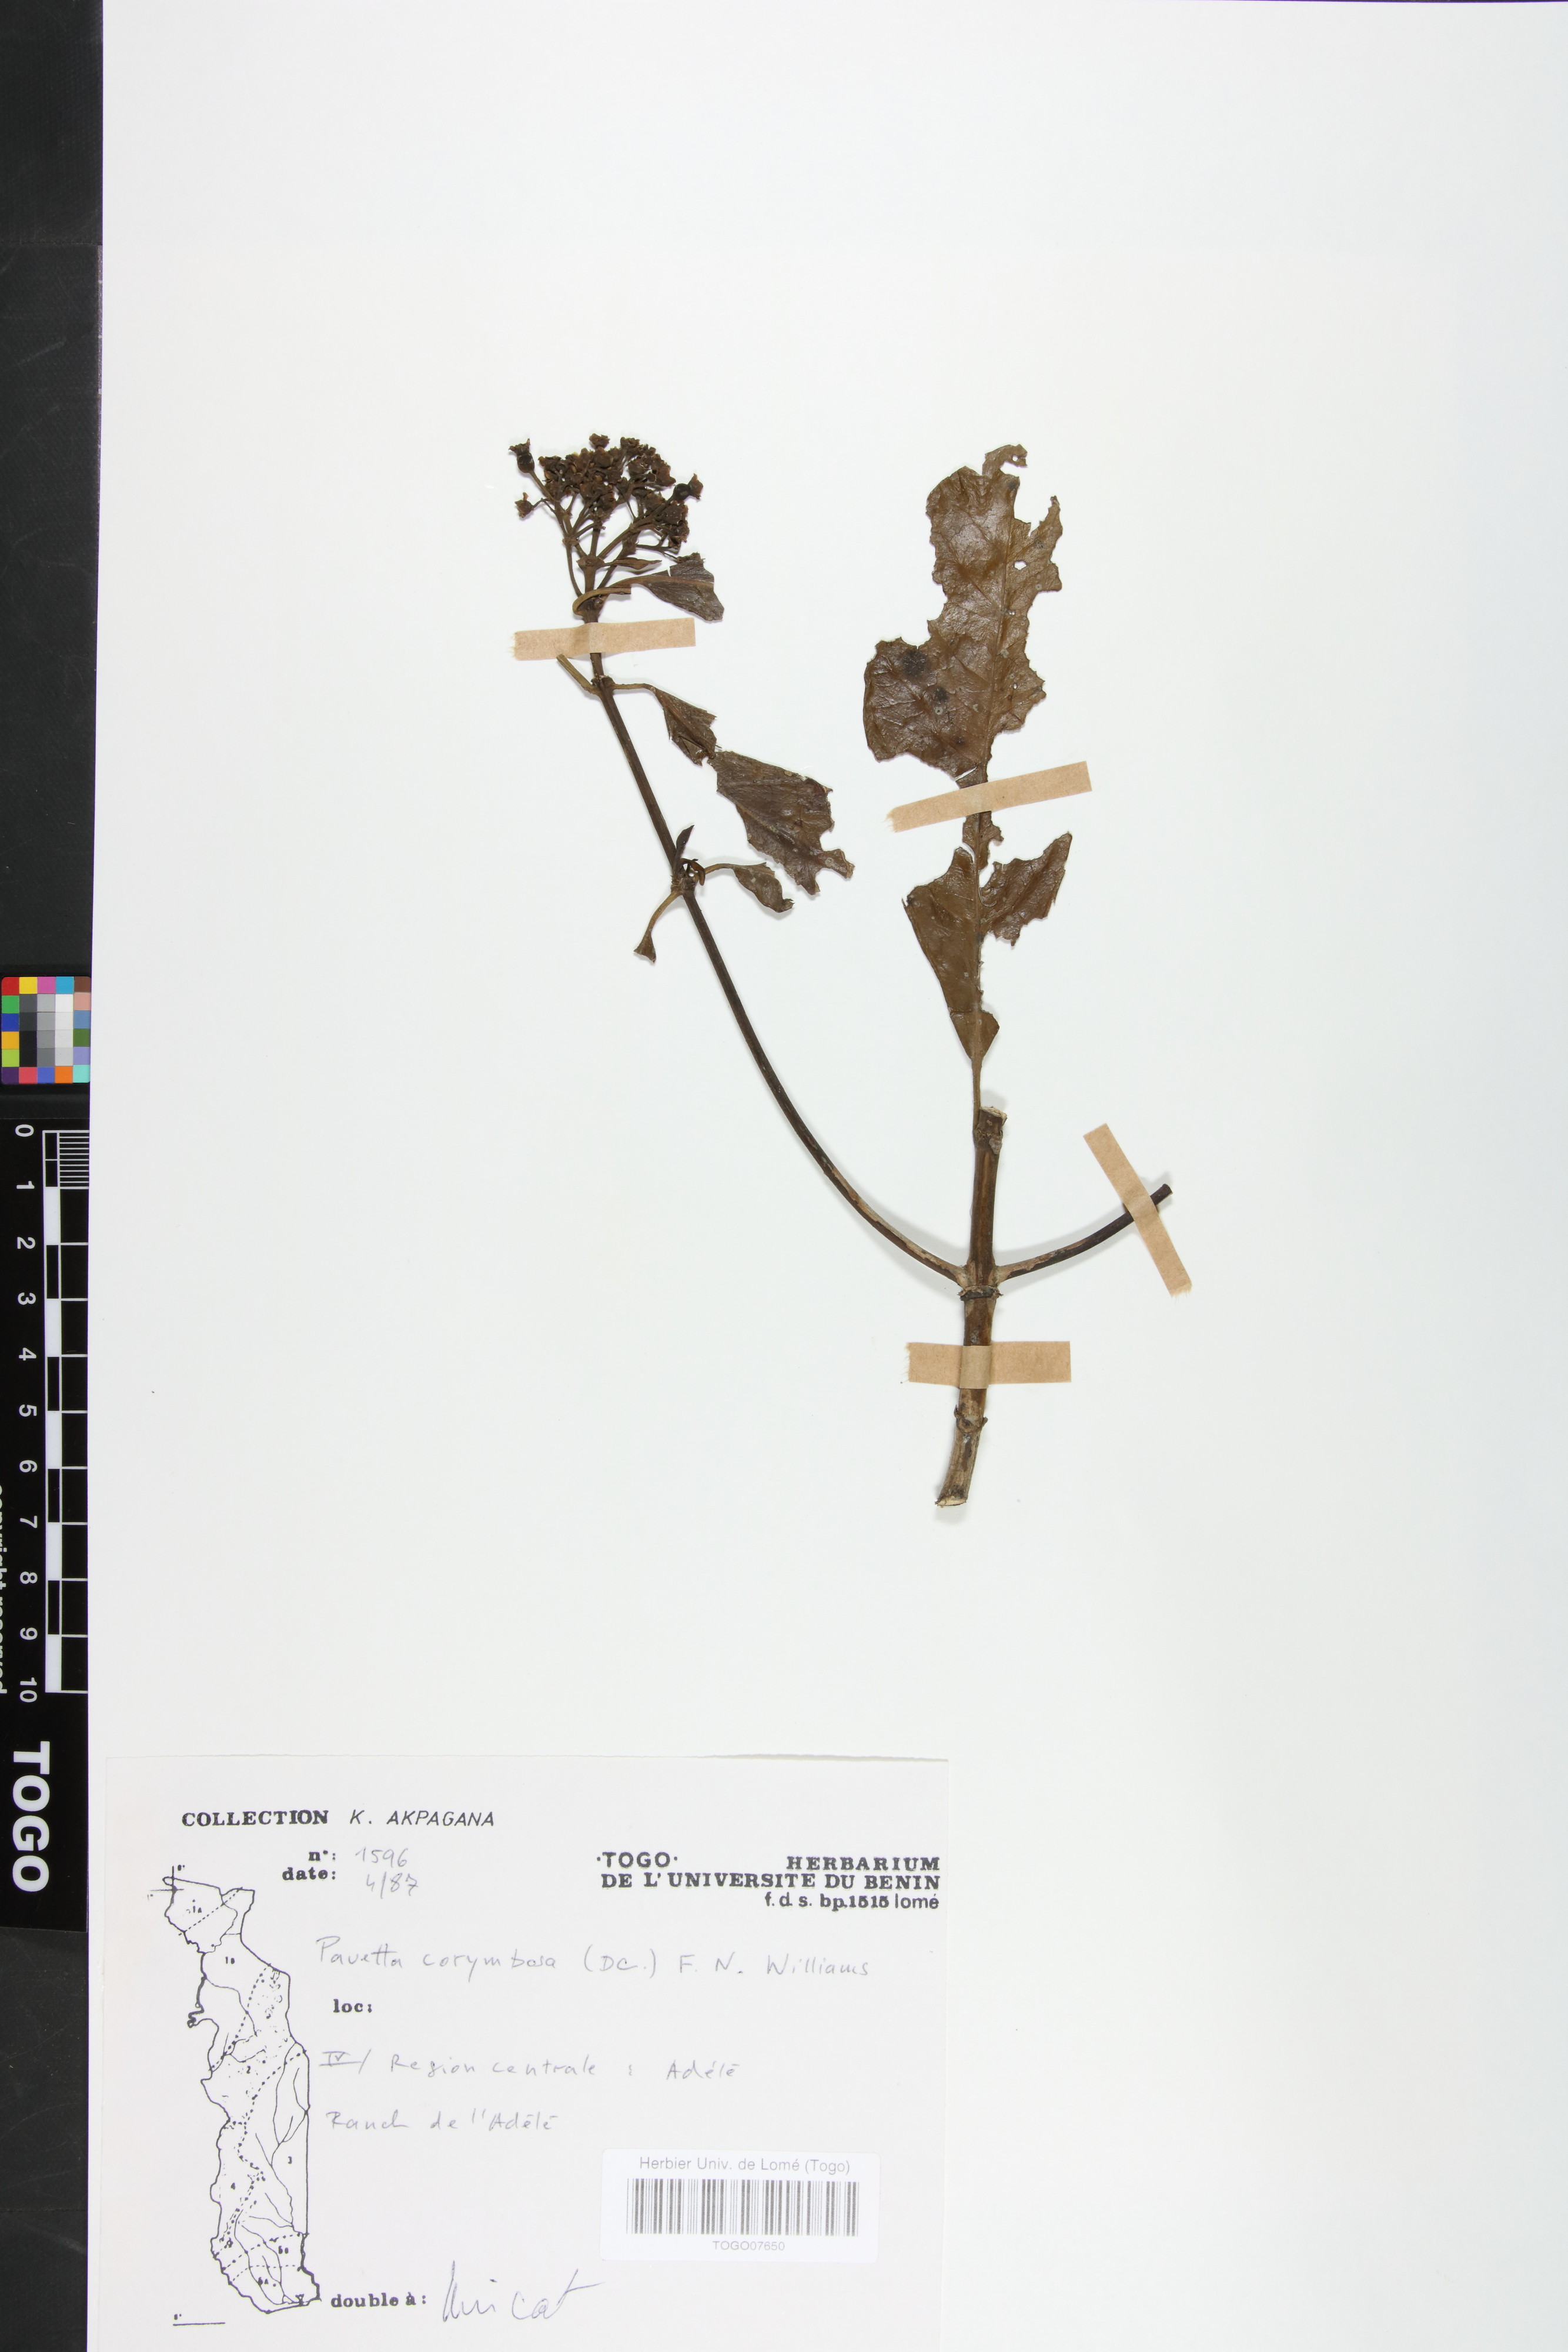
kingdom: Plantae
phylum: Tracheophyta
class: Magnoliopsida
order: Gentianales
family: Rubiaceae
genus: Pavetta
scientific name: Pavetta corymbosa
